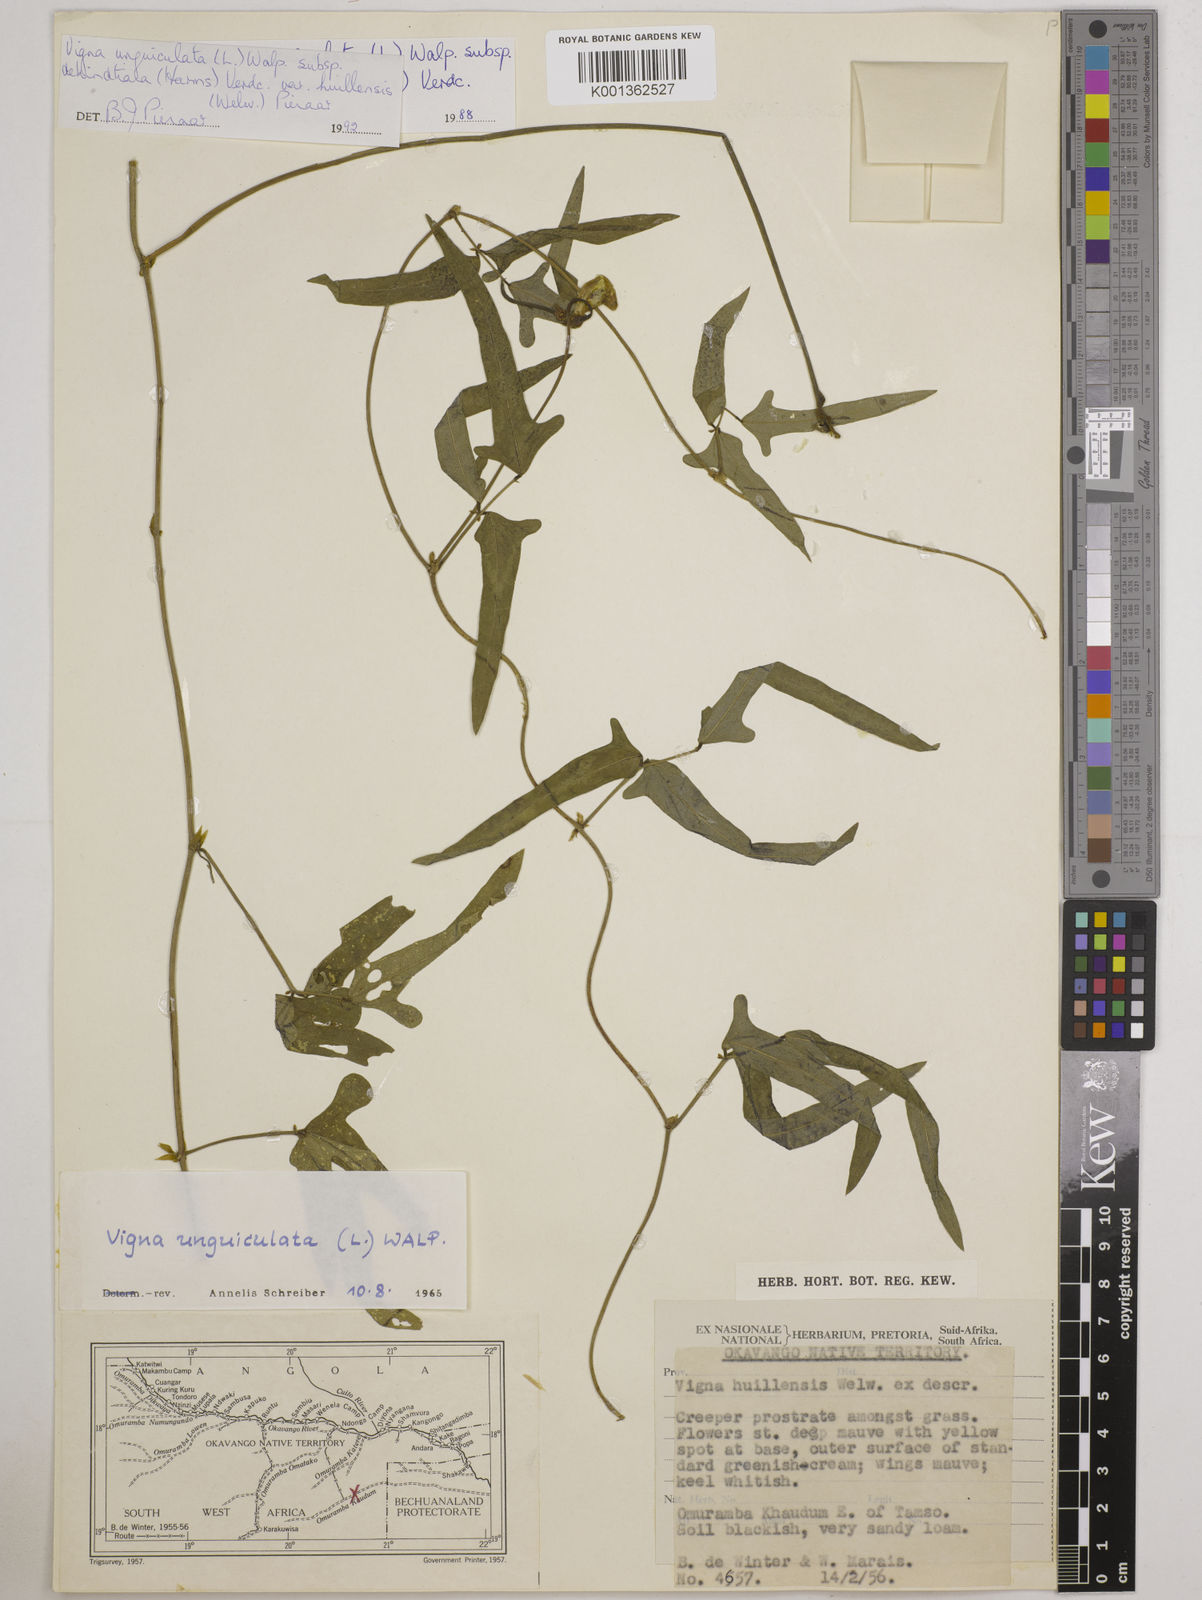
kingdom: Plantae
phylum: Tracheophyta
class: Magnoliopsida
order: Fabales
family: Fabaceae
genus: Vigna
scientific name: Vigna unguiculata
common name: Cowpea
